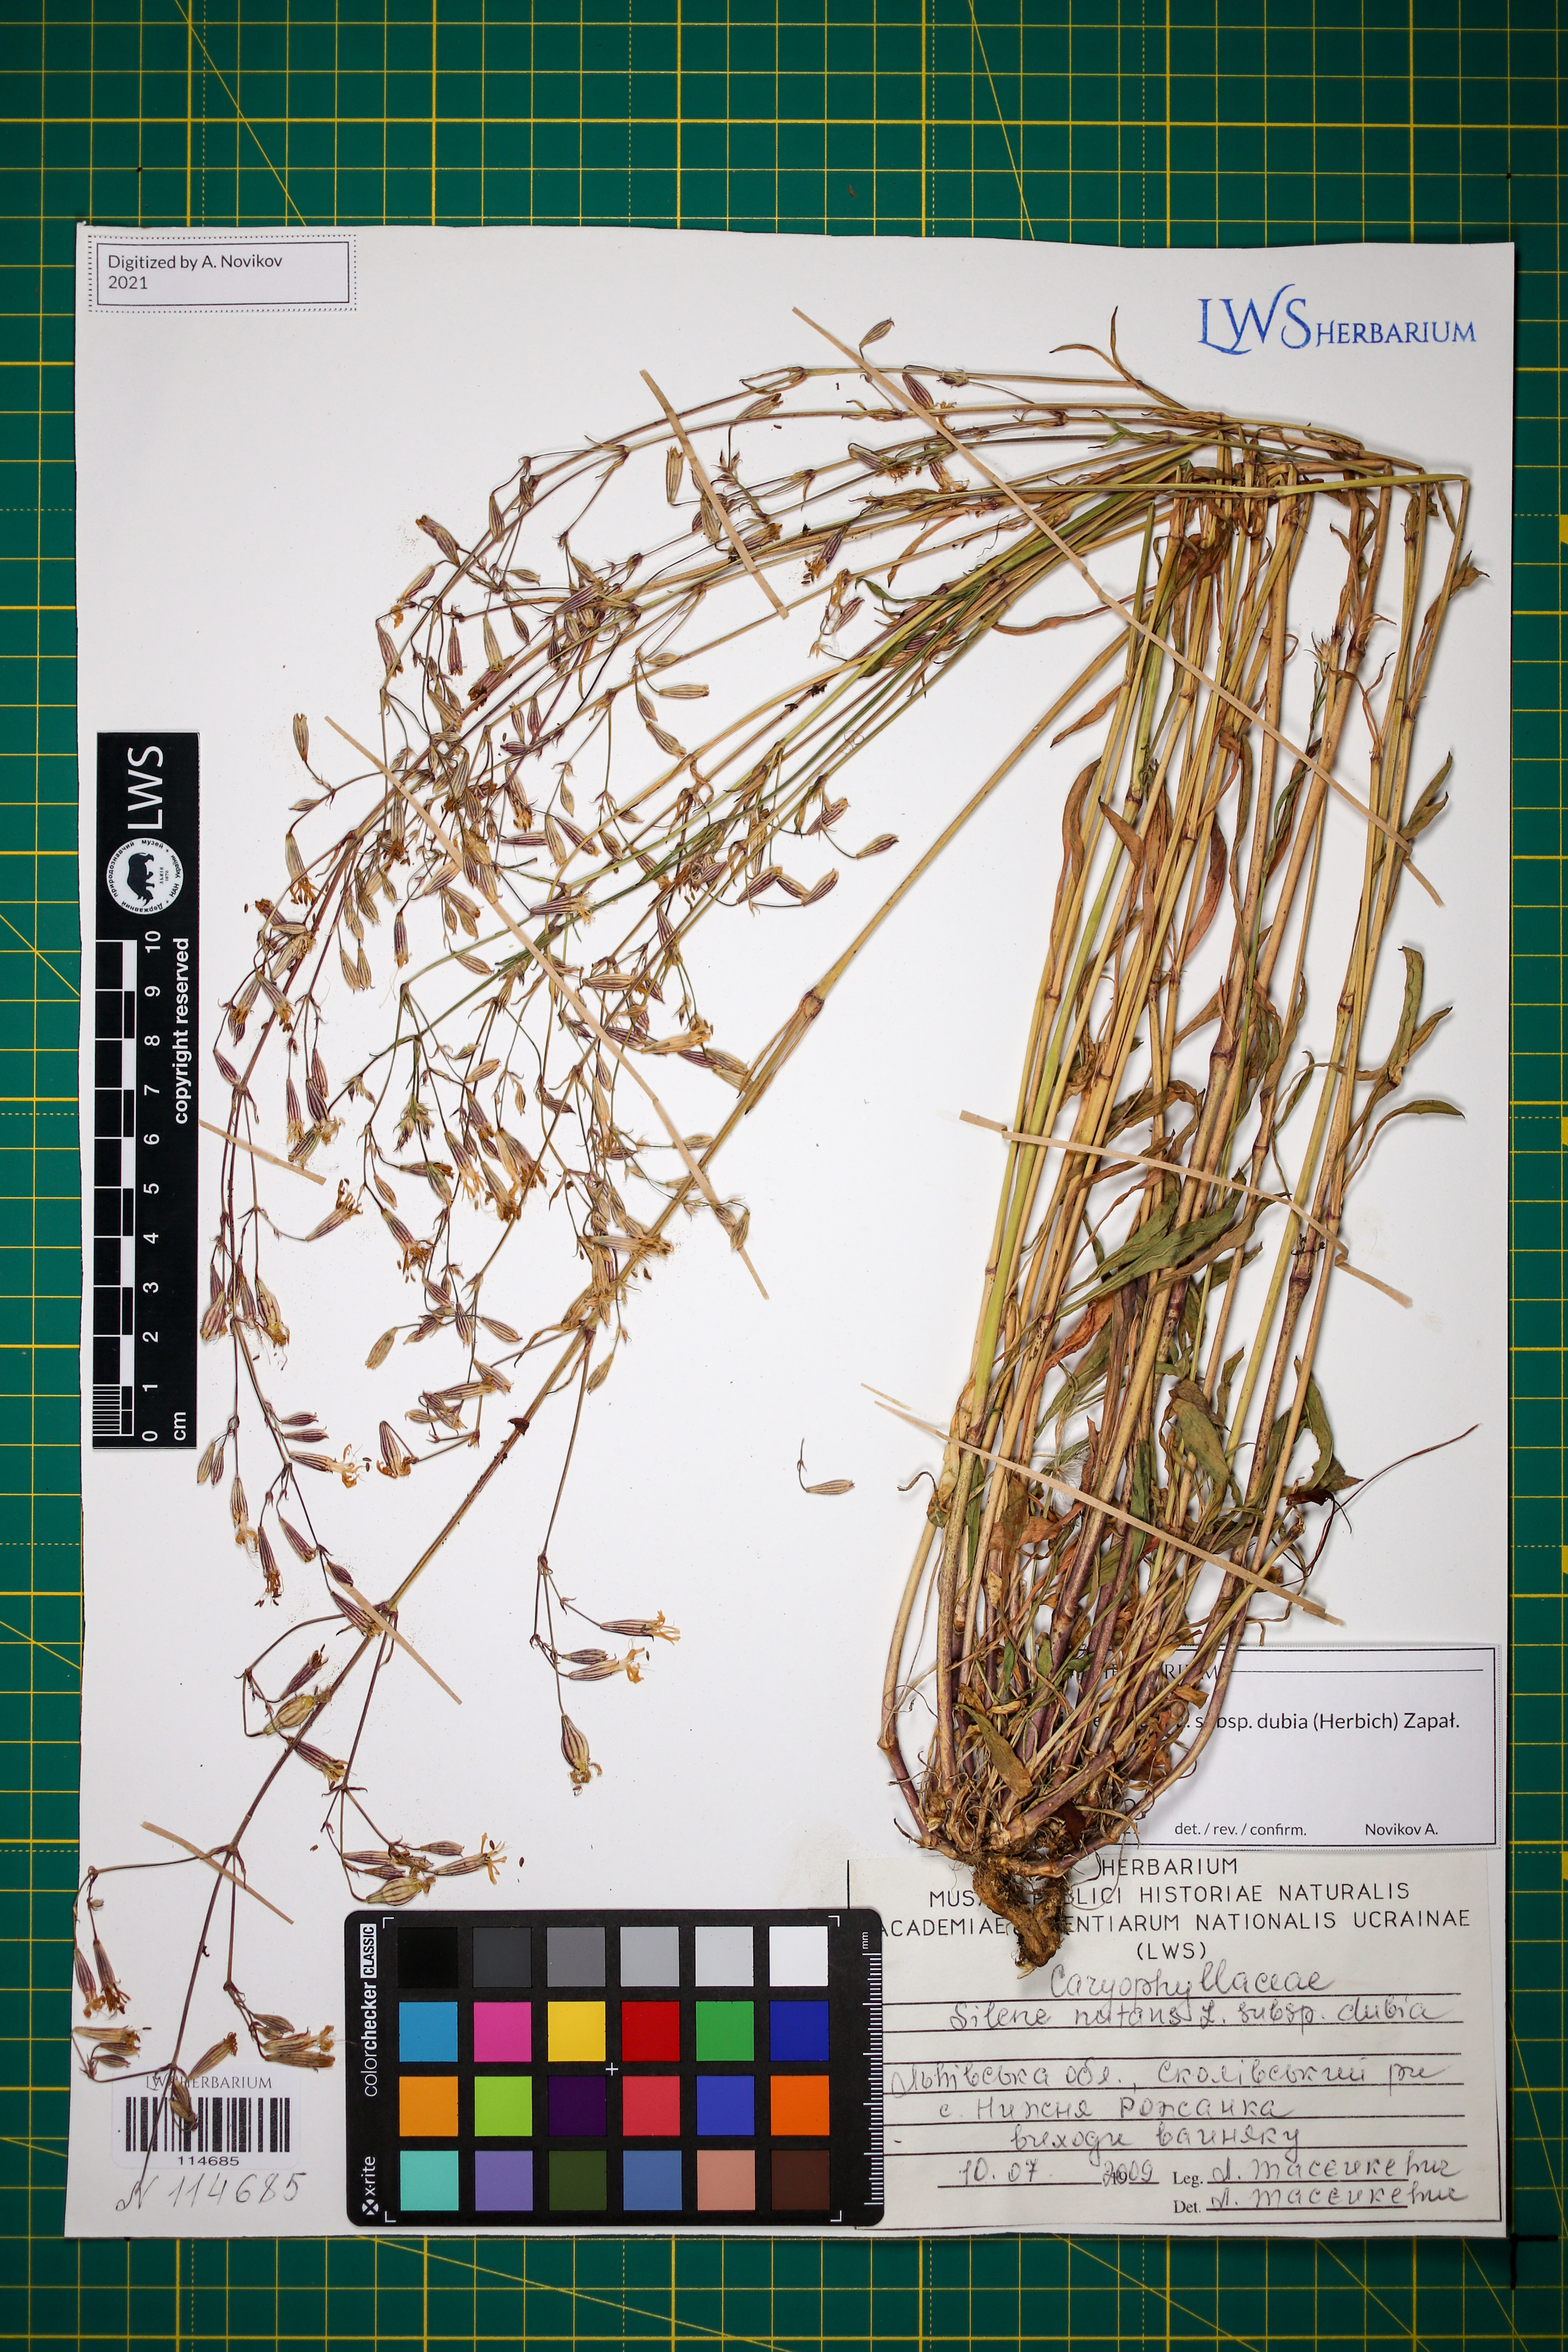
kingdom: Plantae
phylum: Tracheophyta
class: Magnoliopsida
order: Caryophyllales
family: Caryophyllaceae
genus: Silene
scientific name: Silene nutans
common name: Nottingham catchfly
